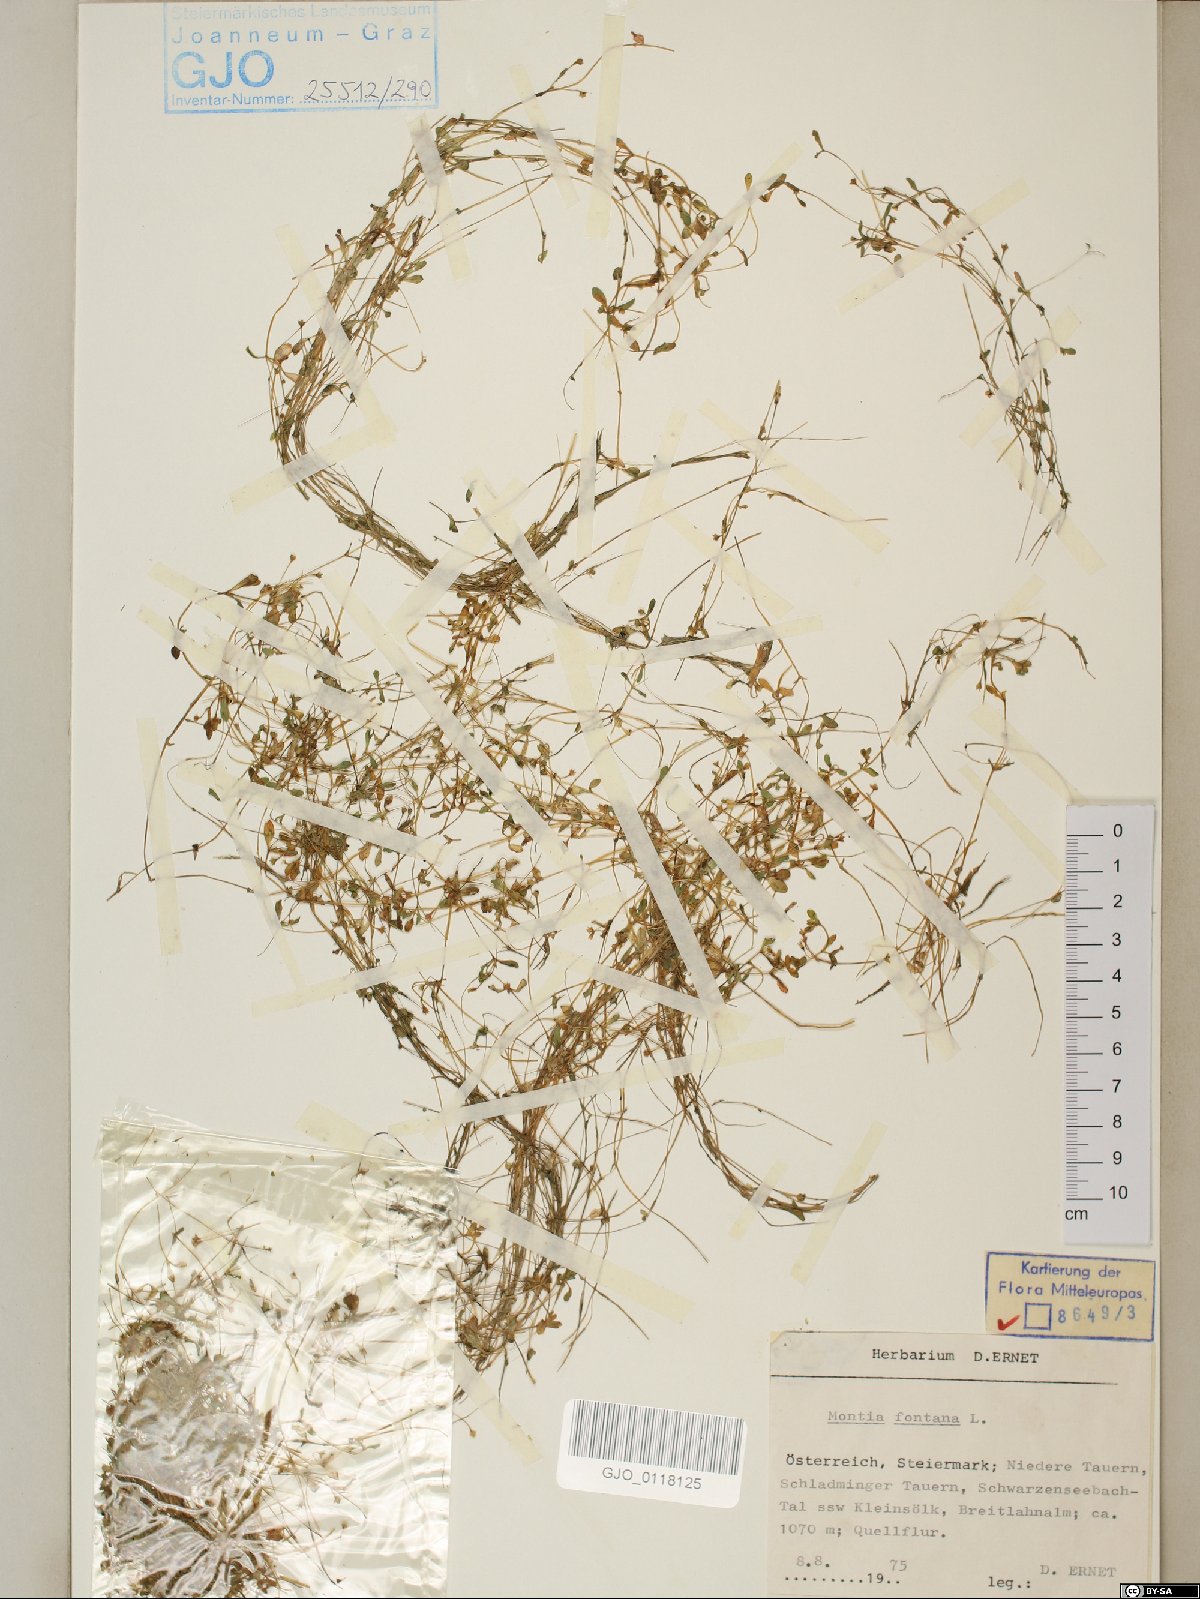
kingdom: Plantae
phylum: Tracheophyta
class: Magnoliopsida
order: Caryophyllales
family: Montiaceae
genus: Montia
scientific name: Montia fontana
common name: Blinks
